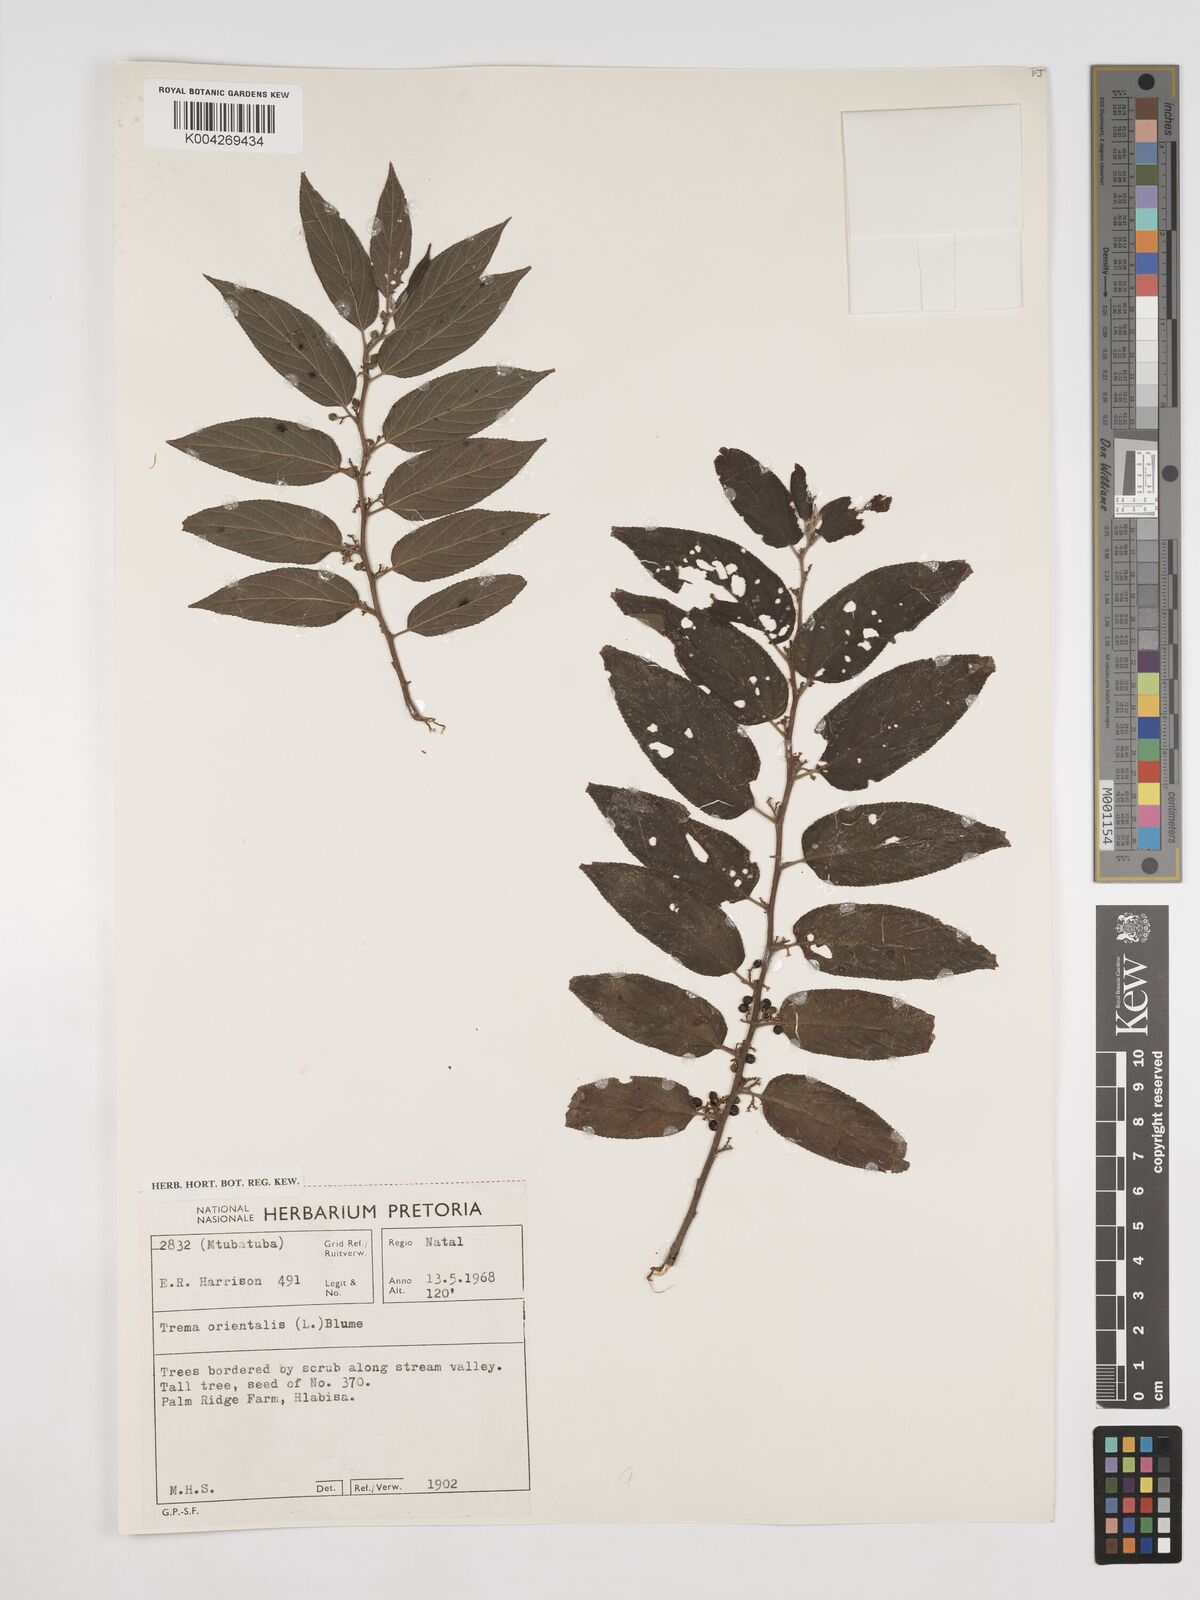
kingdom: Plantae
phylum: Tracheophyta
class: Magnoliopsida
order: Rosales
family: Cannabaceae
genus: Trema
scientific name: Trema orientale
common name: Indian charcoal tree
